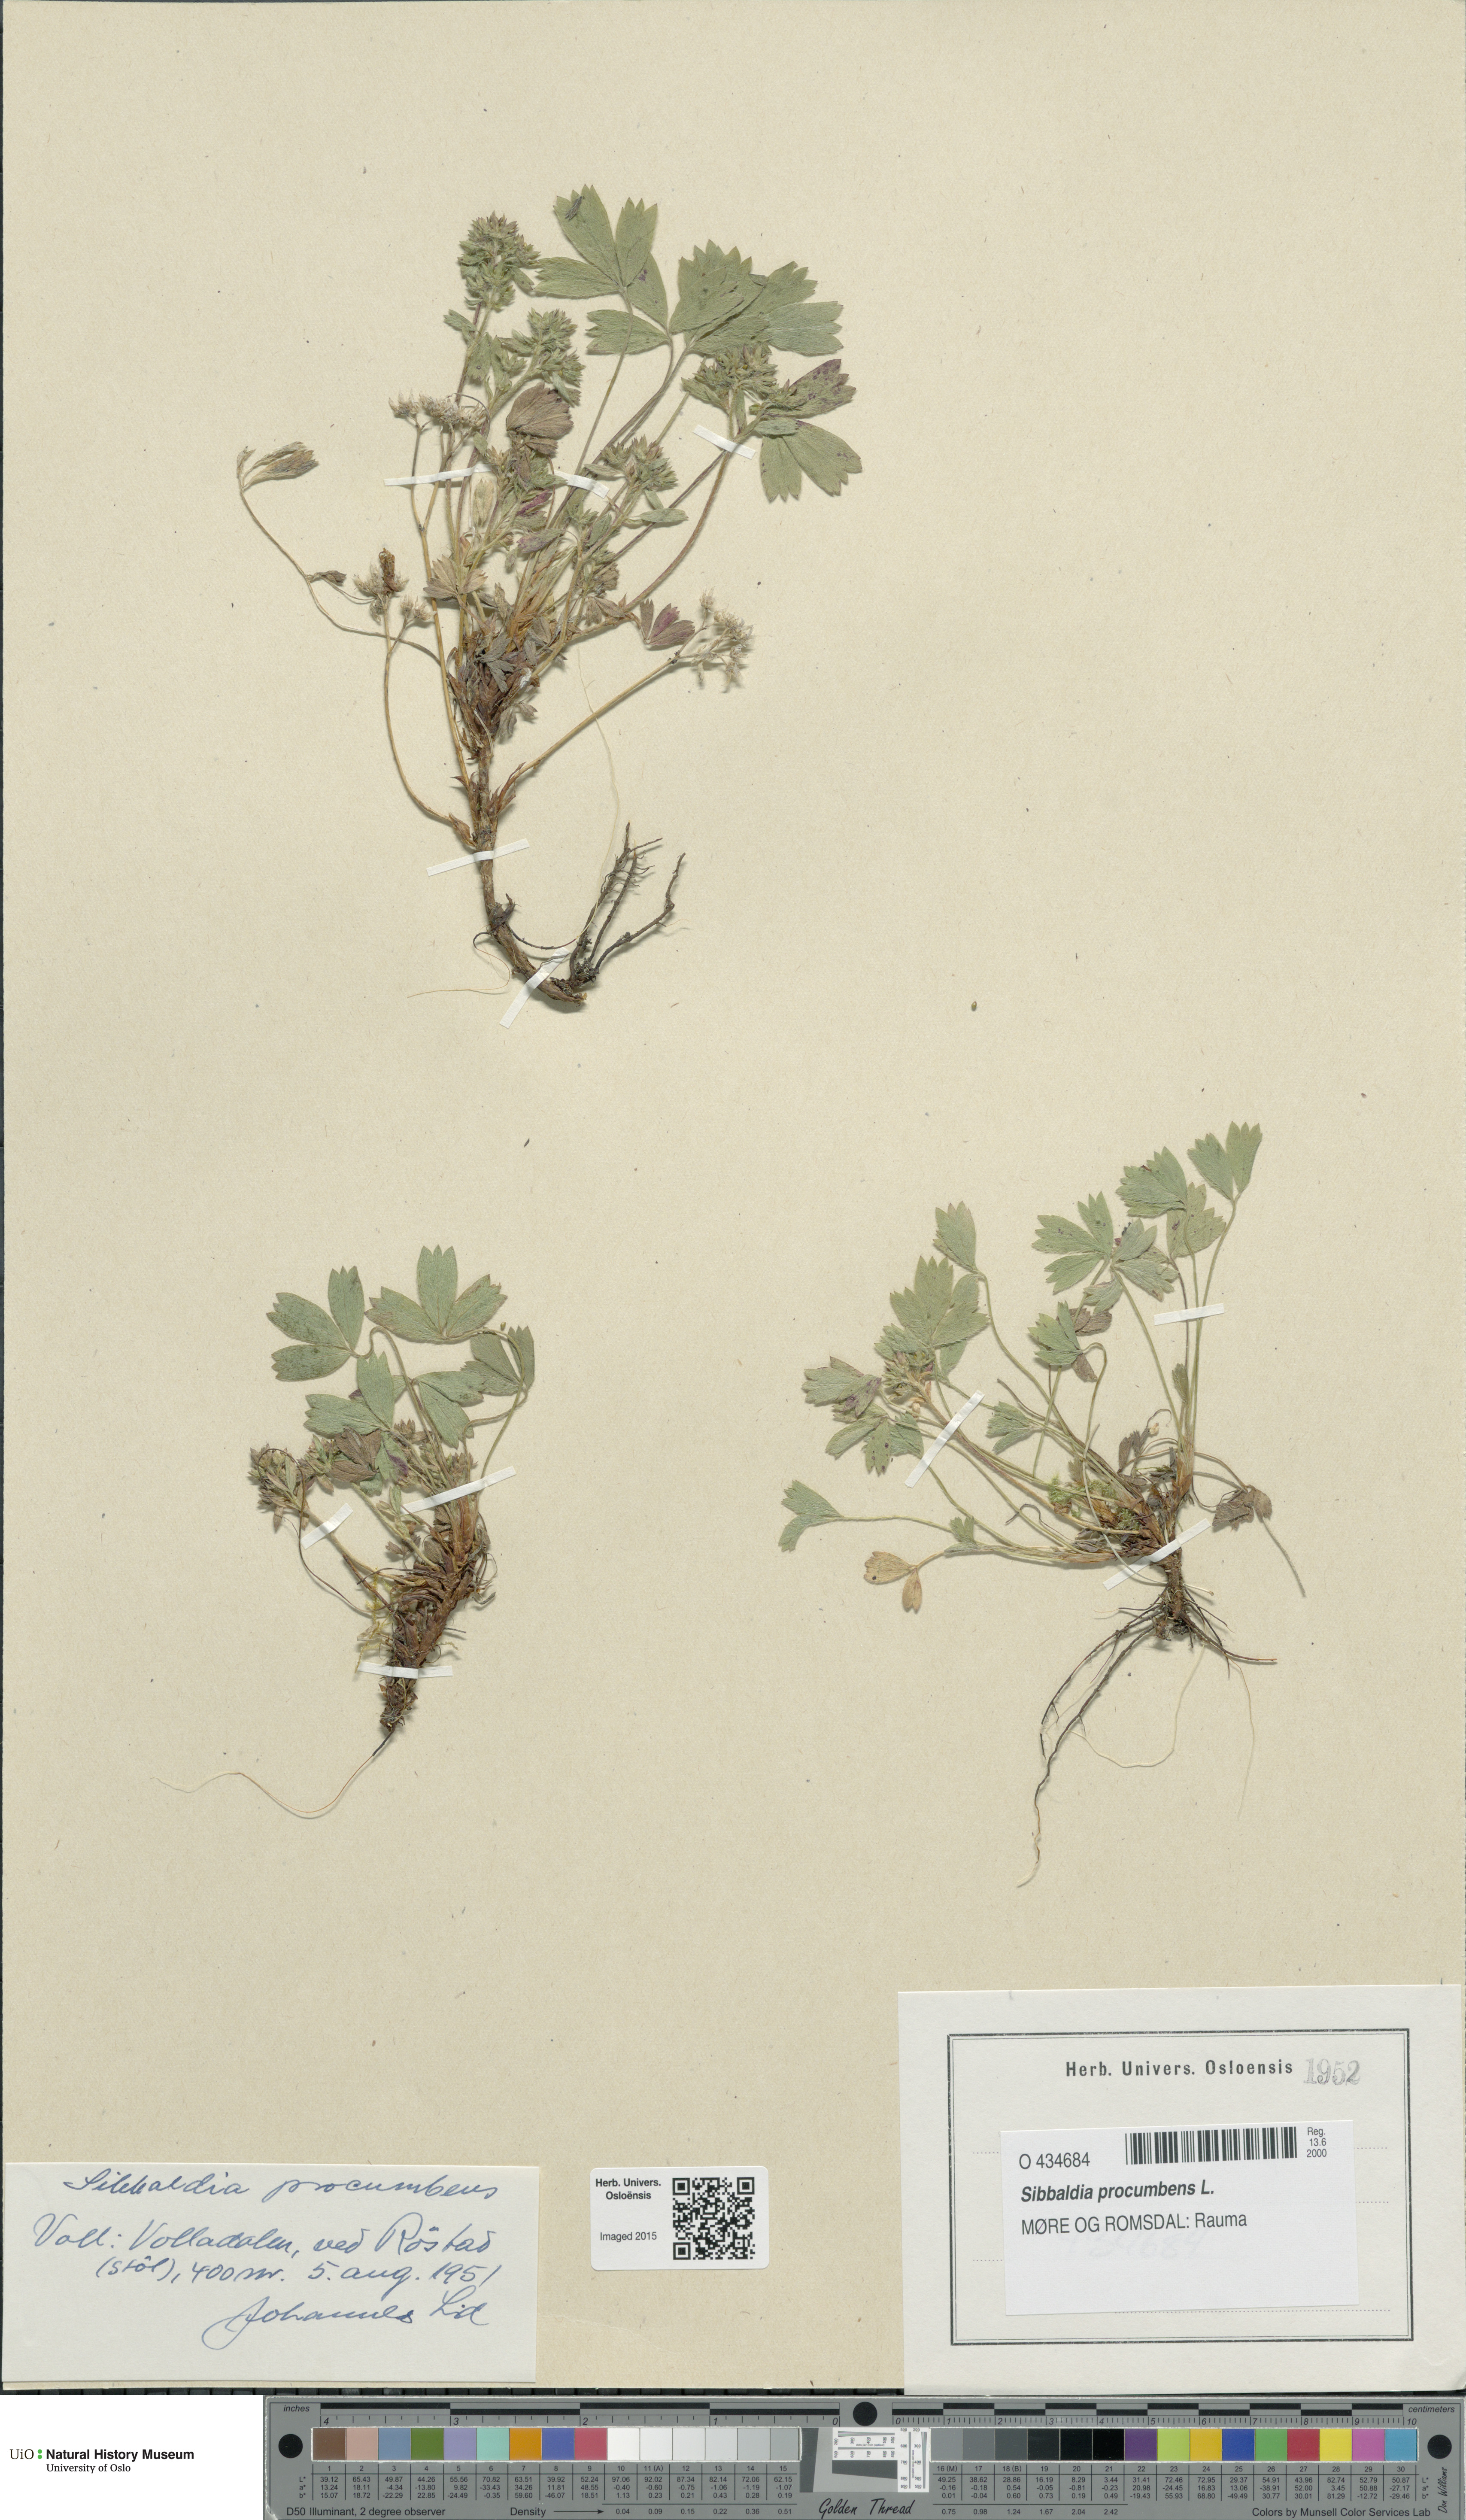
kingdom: Plantae
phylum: Tracheophyta
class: Magnoliopsida
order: Rosales
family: Rosaceae
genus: Sibbaldia
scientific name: Sibbaldia procumbens
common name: Creeping sibbaldia
